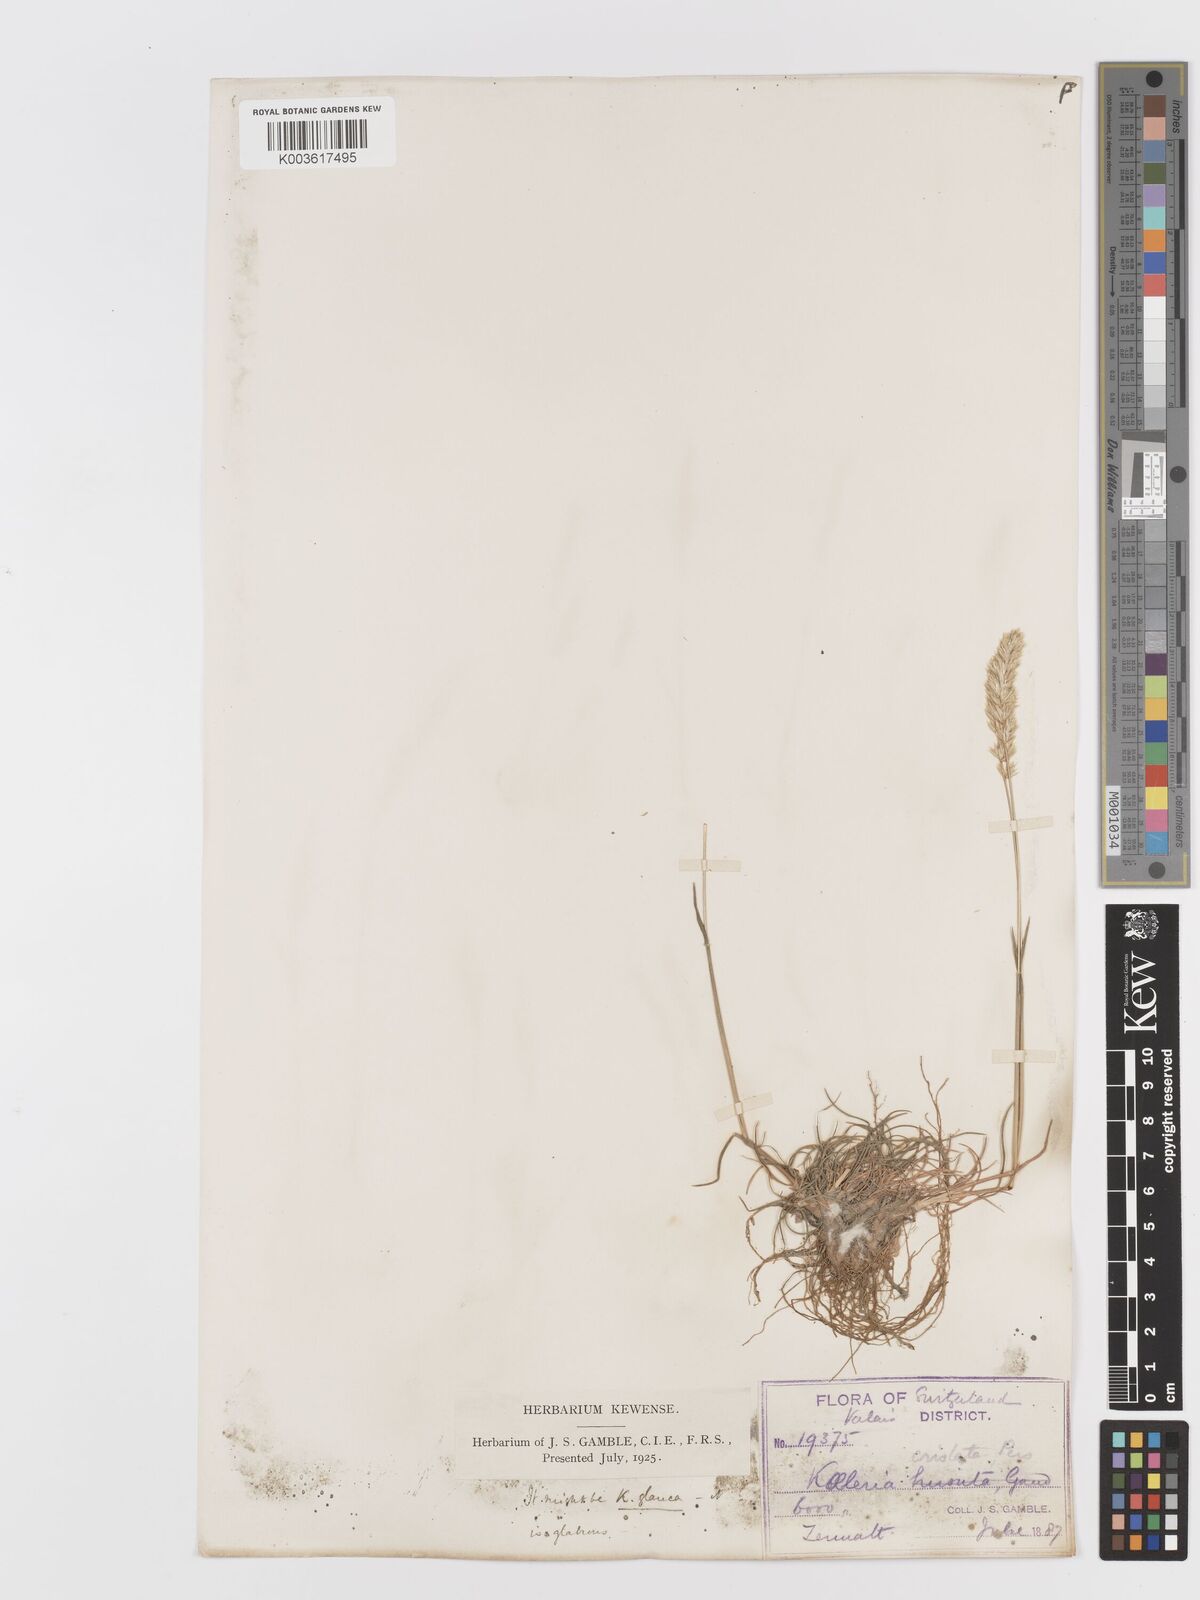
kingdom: Plantae
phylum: Tracheophyta
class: Liliopsida
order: Poales
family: Poaceae
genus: Koeleria
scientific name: Koeleria
